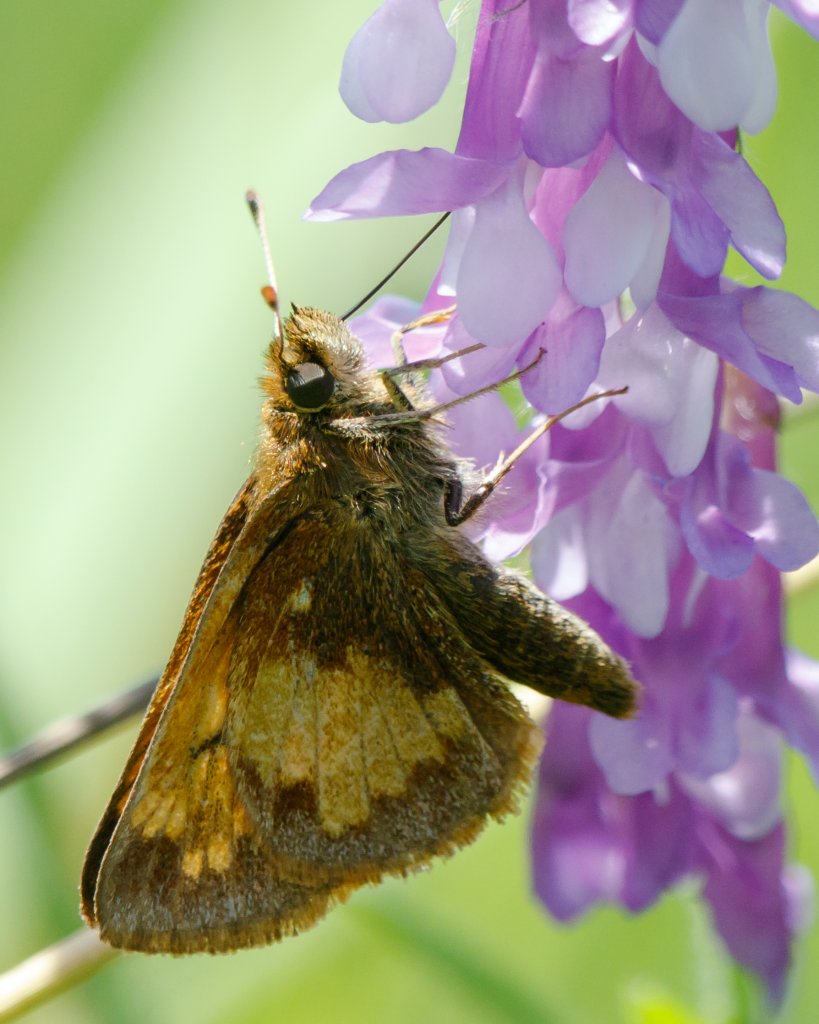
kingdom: Animalia
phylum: Arthropoda
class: Insecta
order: Lepidoptera
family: Hesperiidae
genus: Lon
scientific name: Lon hobomok
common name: Hobomok Skipper
